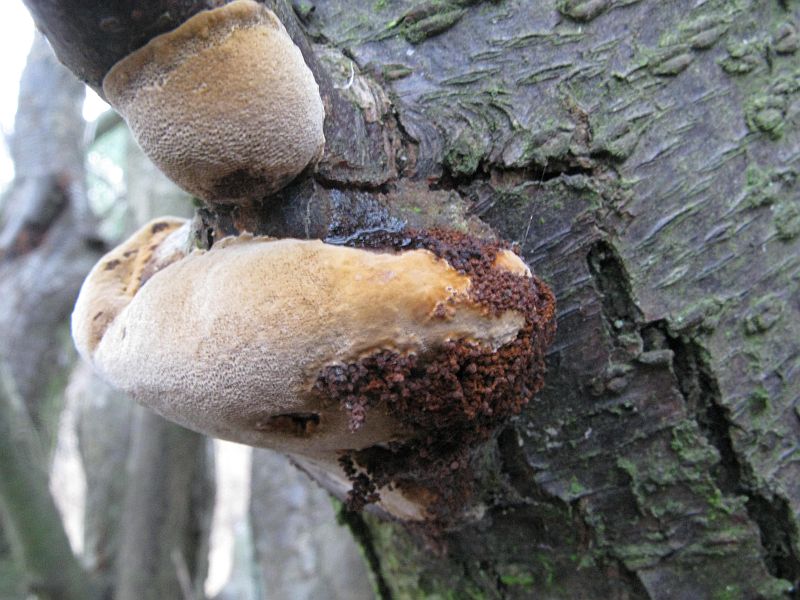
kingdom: Fungi
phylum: Basidiomycota
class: Agaricomycetes
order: Hymenochaetales
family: Hymenochaetaceae
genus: Phellinus
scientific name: Phellinus pomaceus
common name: blomme-ildporesvamp
